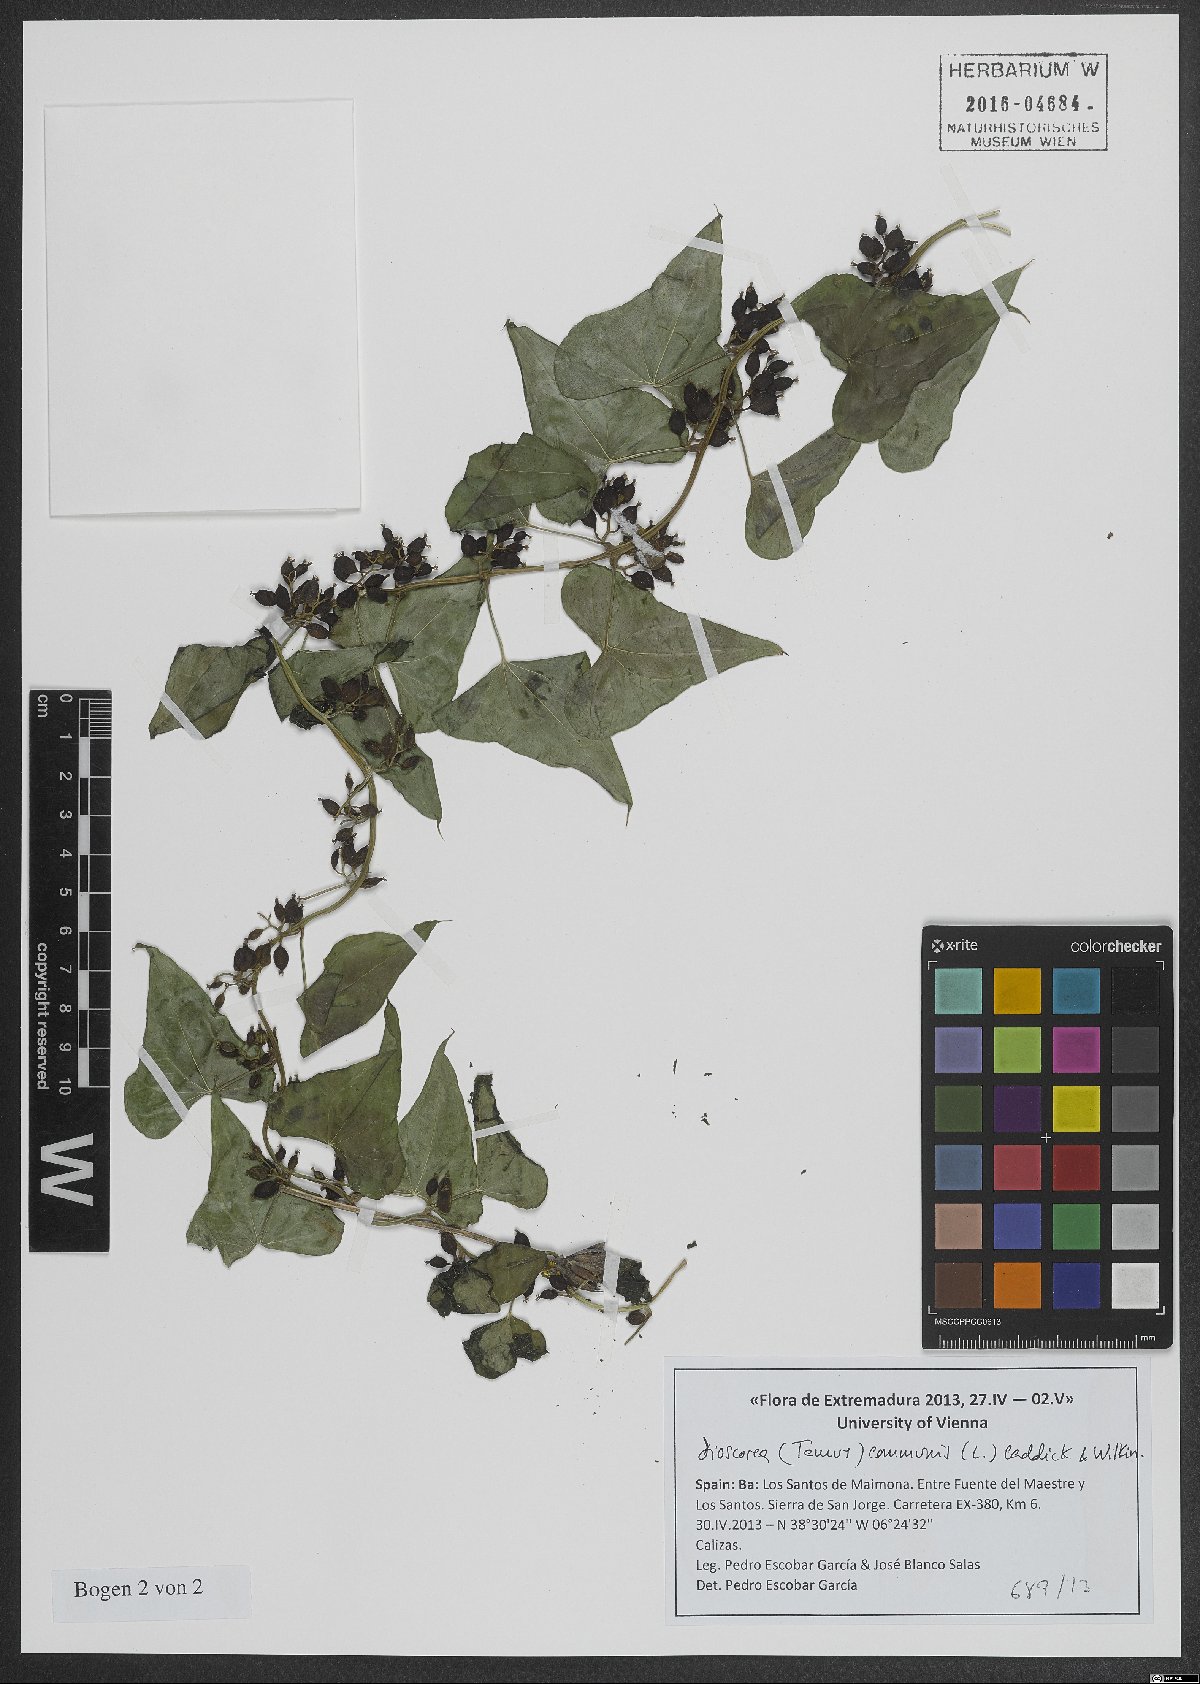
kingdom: Plantae
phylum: Tracheophyta
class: Liliopsida
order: Dioscoreales
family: Dioscoreaceae
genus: Dioscorea
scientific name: Dioscorea communis
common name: Black-bindweed
